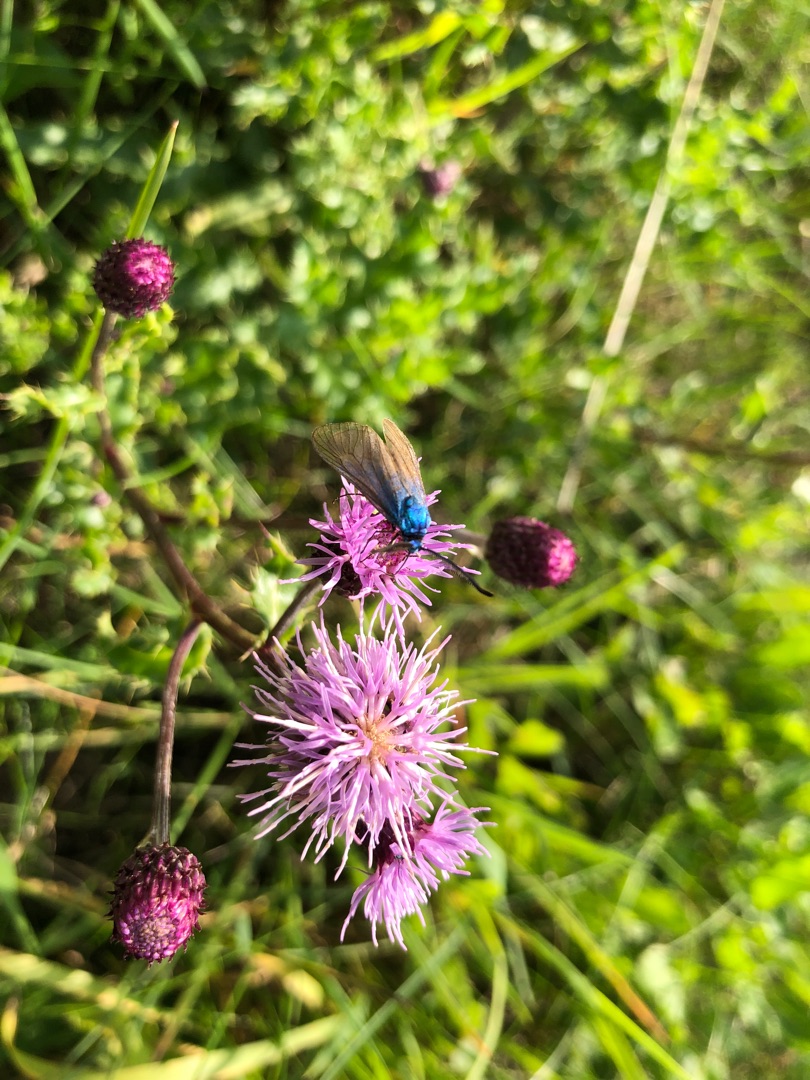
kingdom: Animalia
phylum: Arthropoda
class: Insecta
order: Lepidoptera
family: Zygaenidae
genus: Adscita
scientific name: Adscita statices
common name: Metalvinge
